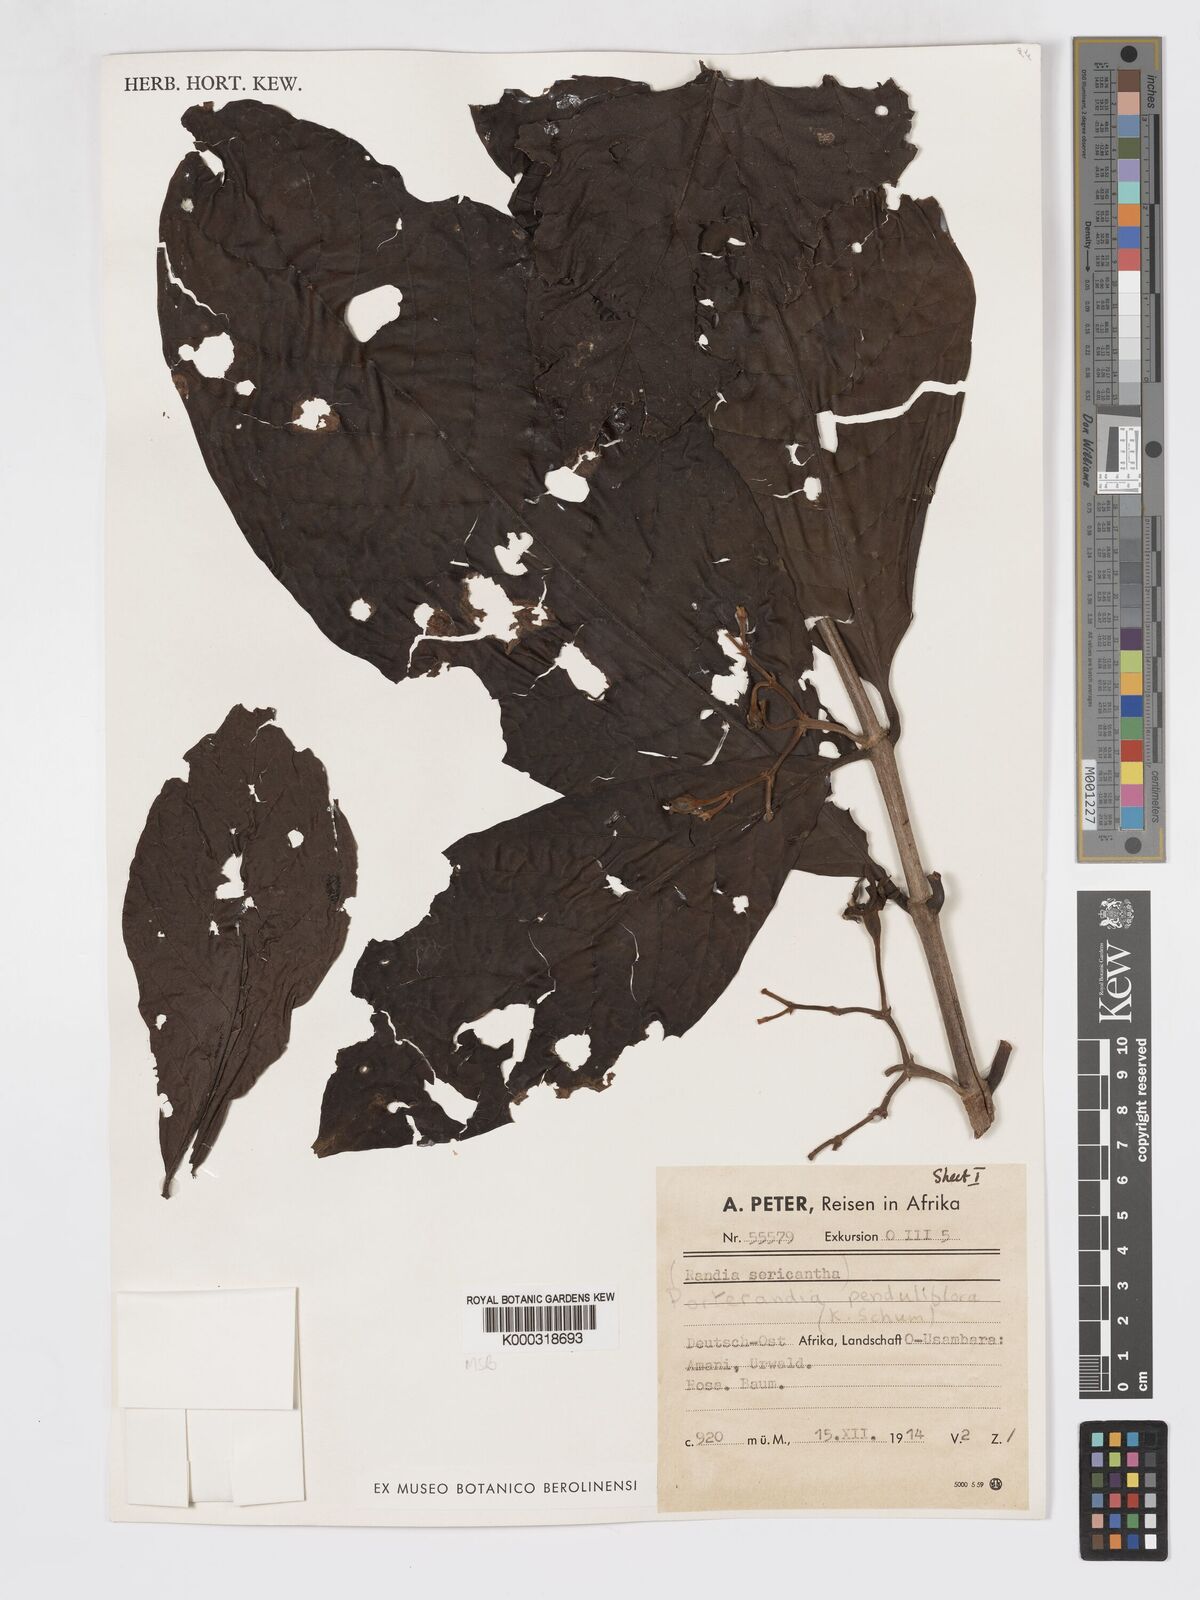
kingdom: Plantae
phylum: Tracheophyta
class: Magnoliopsida
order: Gentianales
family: Rubiaceae
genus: Aoranthe
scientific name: Aoranthe penduliflora
